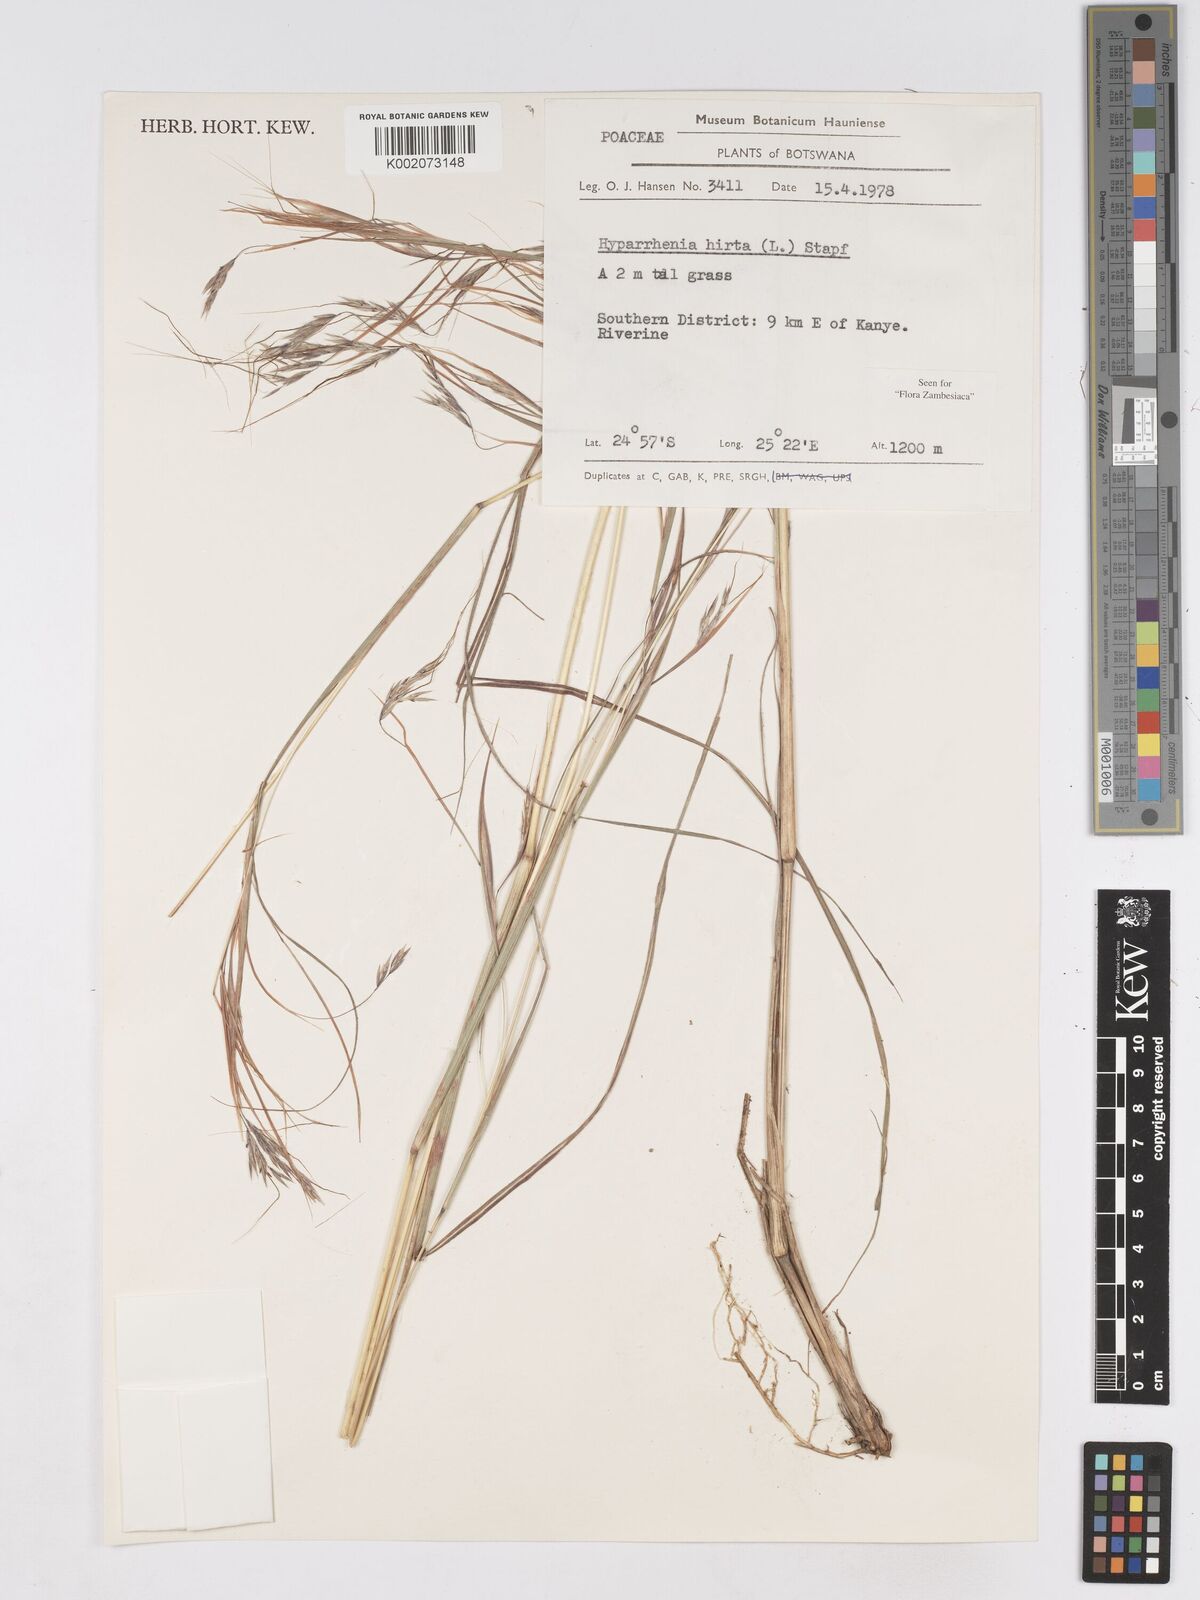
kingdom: Plantae
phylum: Tracheophyta
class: Liliopsida
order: Poales
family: Poaceae
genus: Hyparrhenia
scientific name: Hyparrhenia hirta
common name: Thatching grass
